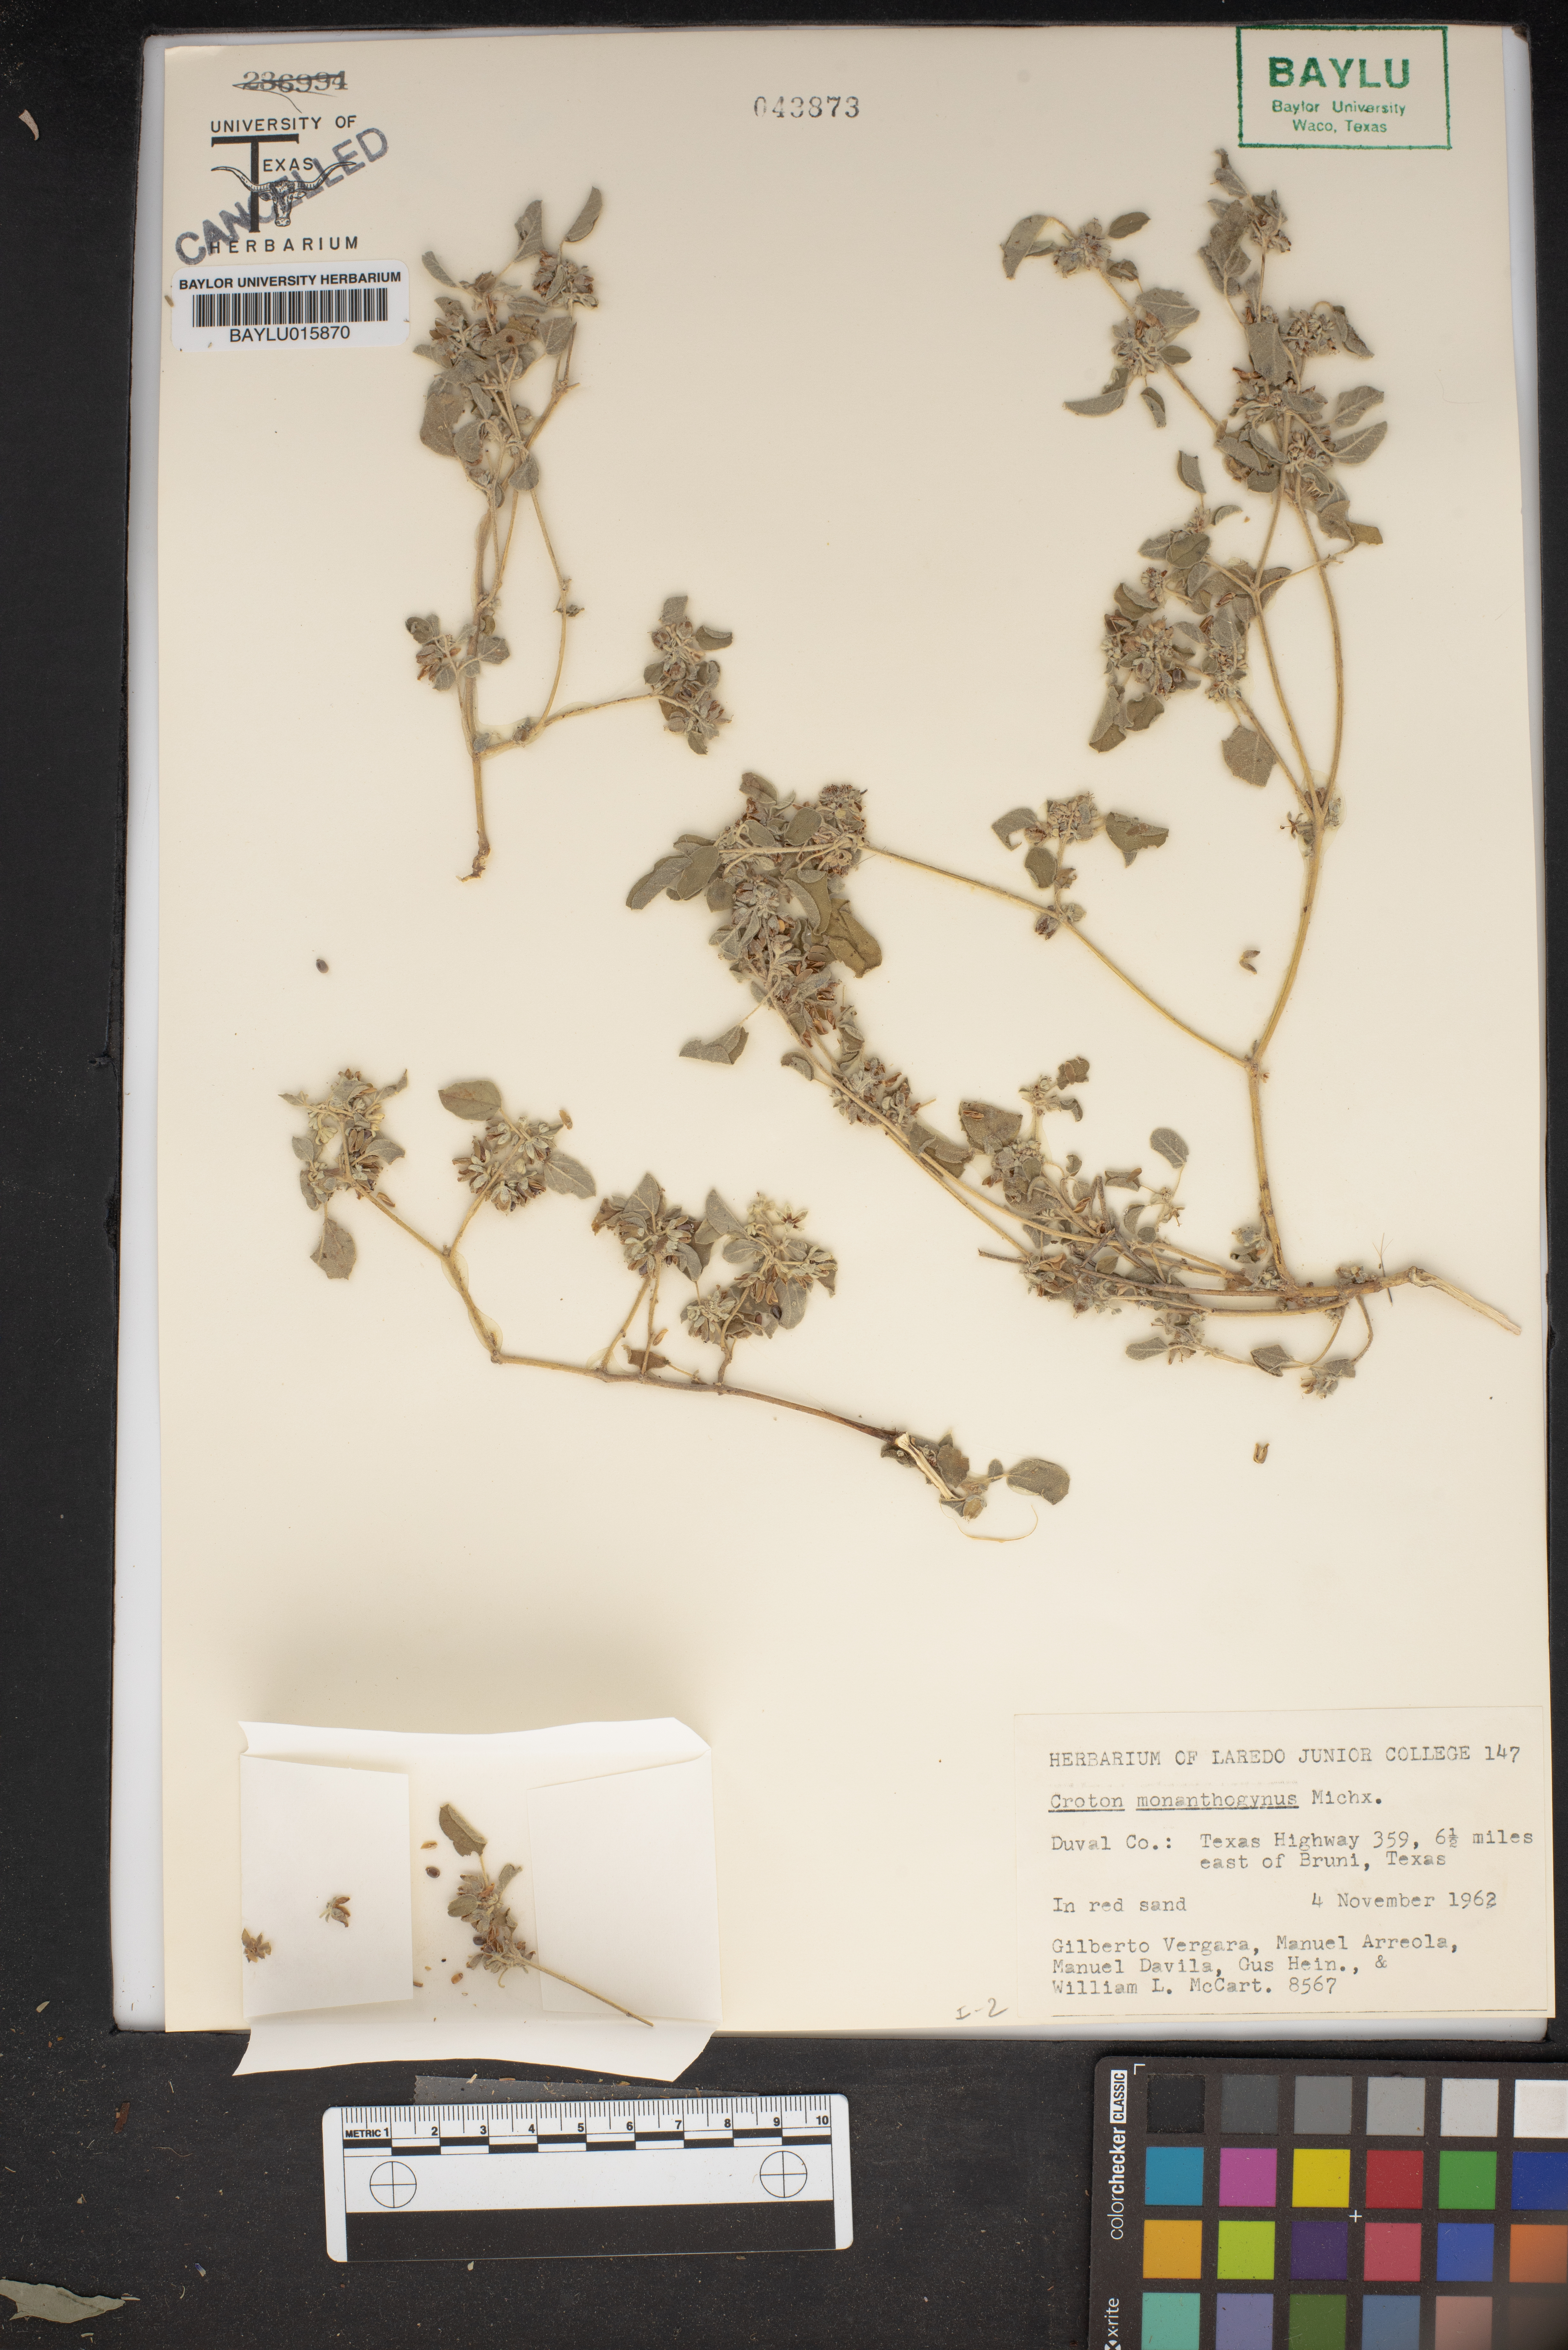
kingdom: Plantae
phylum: Tracheophyta
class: Magnoliopsida
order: Malpighiales
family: Euphorbiaceae
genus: Croton
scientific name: Croton monanthogynus
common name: One-seed croton
